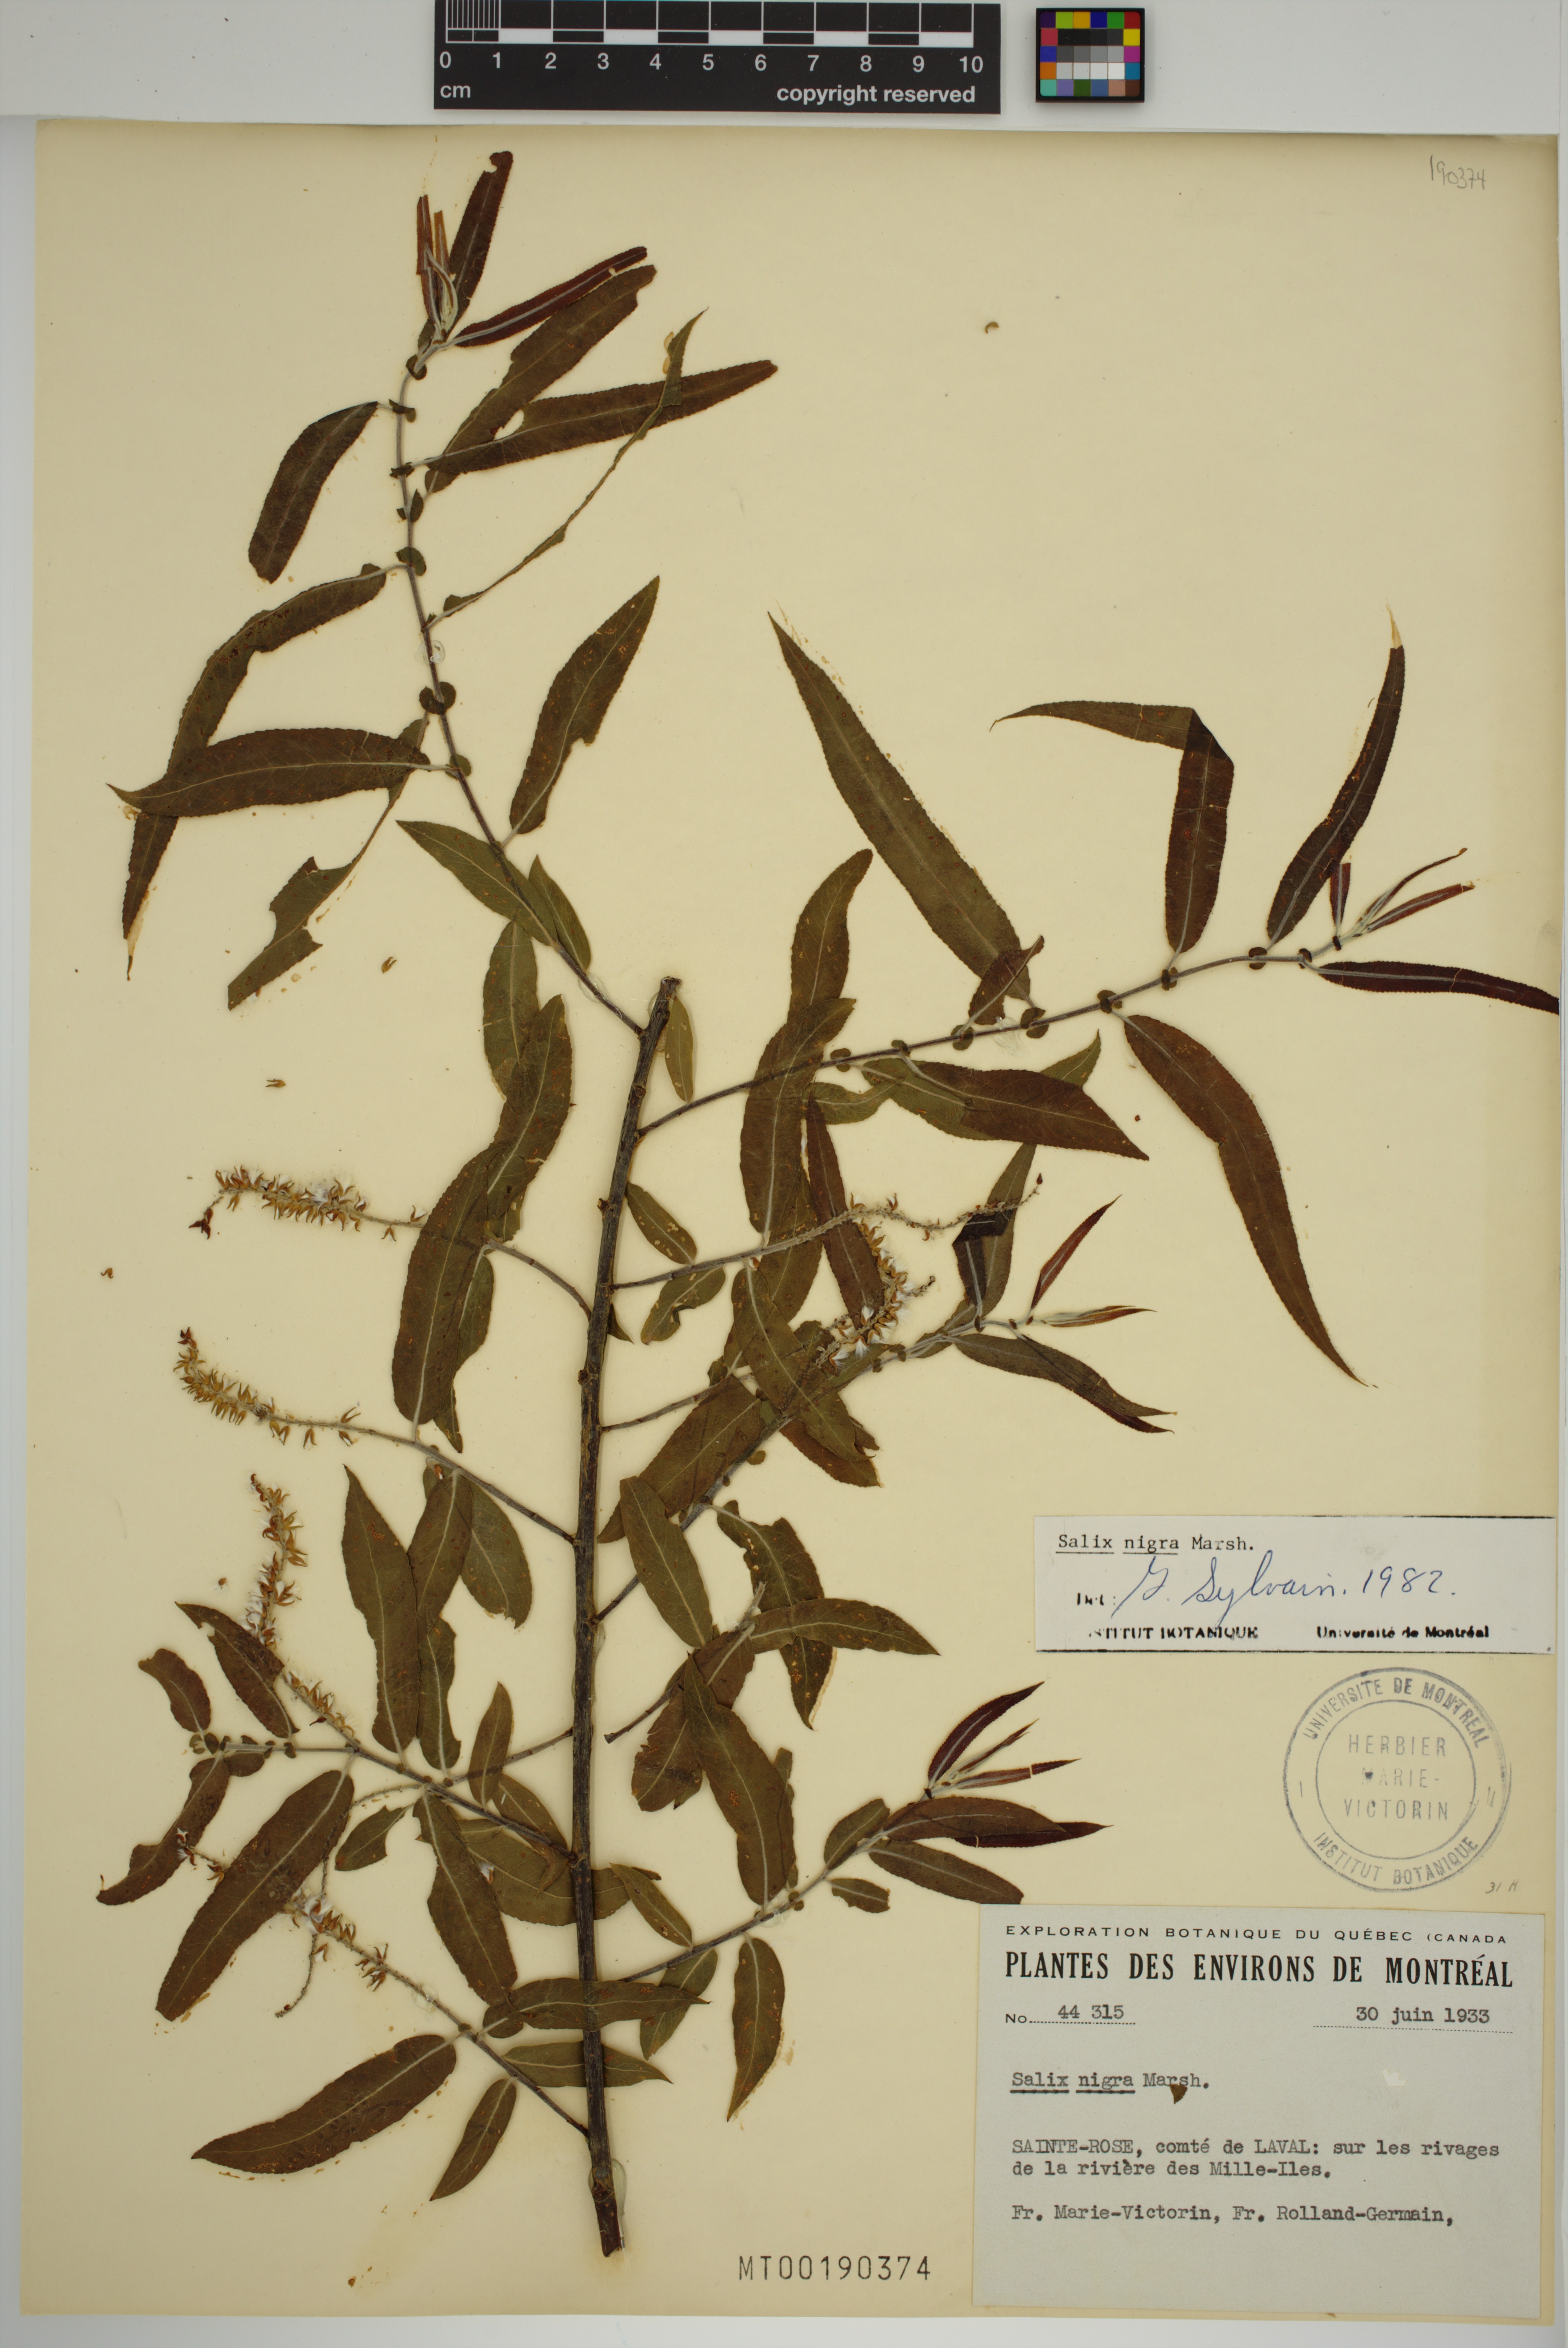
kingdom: Plantae
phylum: Tracheophyta
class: Magnoliopsida
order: Malpighiales
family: Salicaceae
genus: Salix
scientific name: Salix nigra
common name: Black willow
